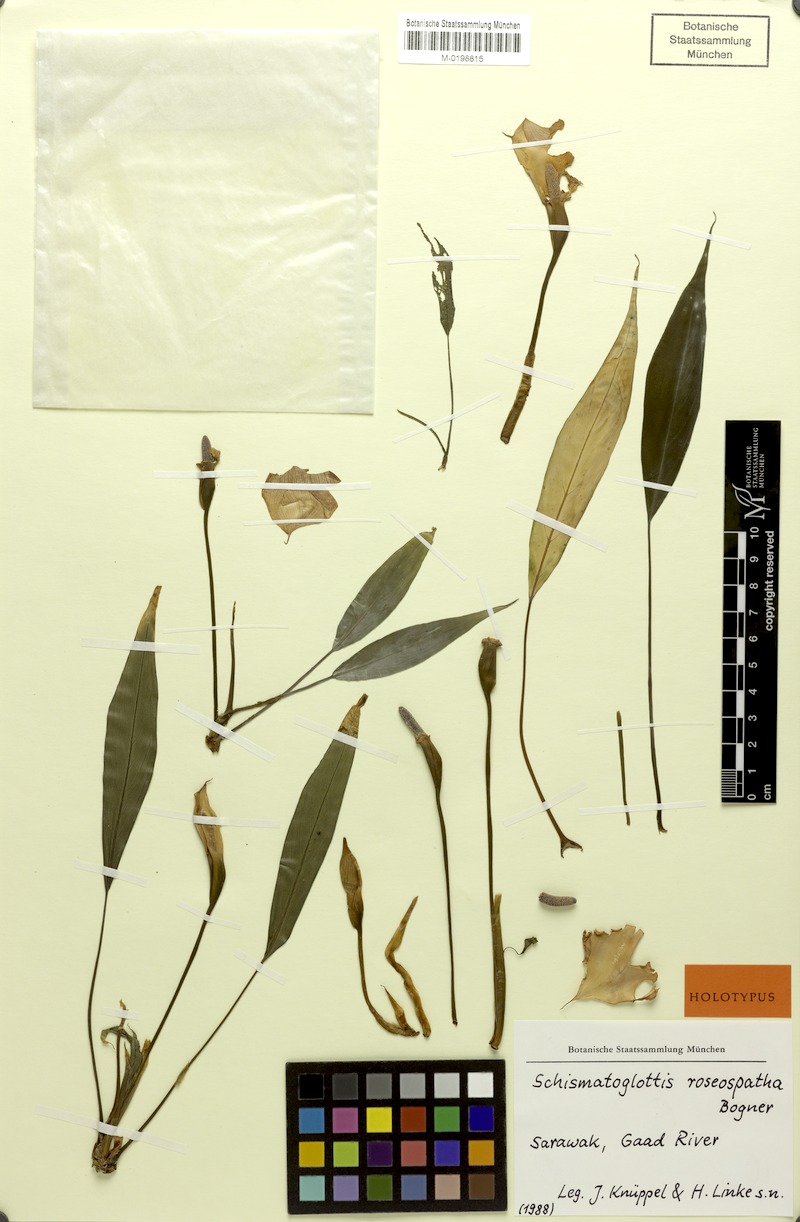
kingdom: Plantae
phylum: Tracheophyta
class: Liliopsida
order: Alismatales
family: Araceae
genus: Schismatoglottis
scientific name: Schismatoglottis roseospatha
